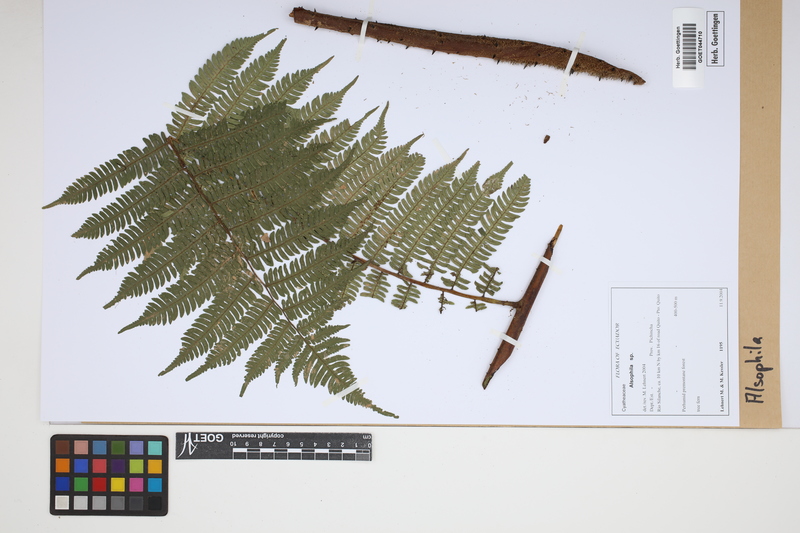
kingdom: Plantae
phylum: Tracheophyta
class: Polypodiopsida
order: Cyatheales
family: Cyatheaceae
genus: Alsophila
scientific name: Alsophila
